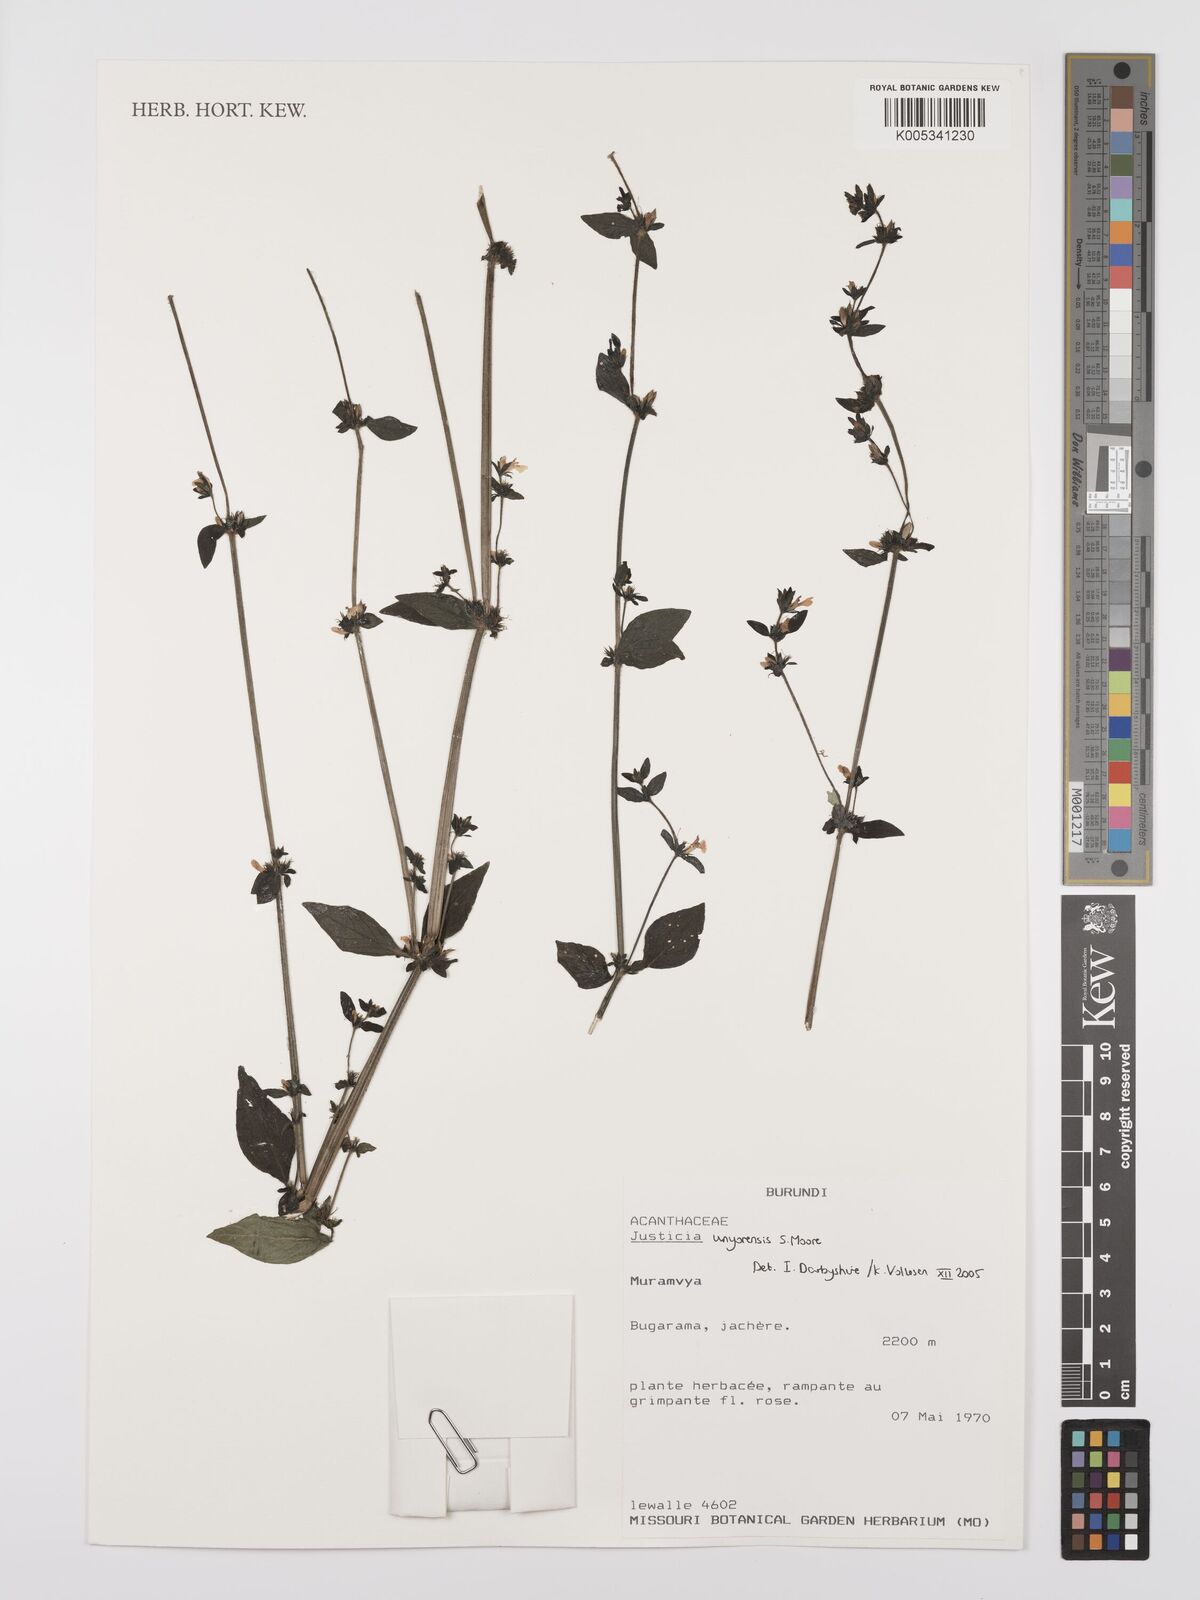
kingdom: Plantae
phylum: Tracheophyta
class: Magnoliopsida
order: Lamiales
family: Acanthaceae
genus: Justicia
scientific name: Justicia unyorensis
